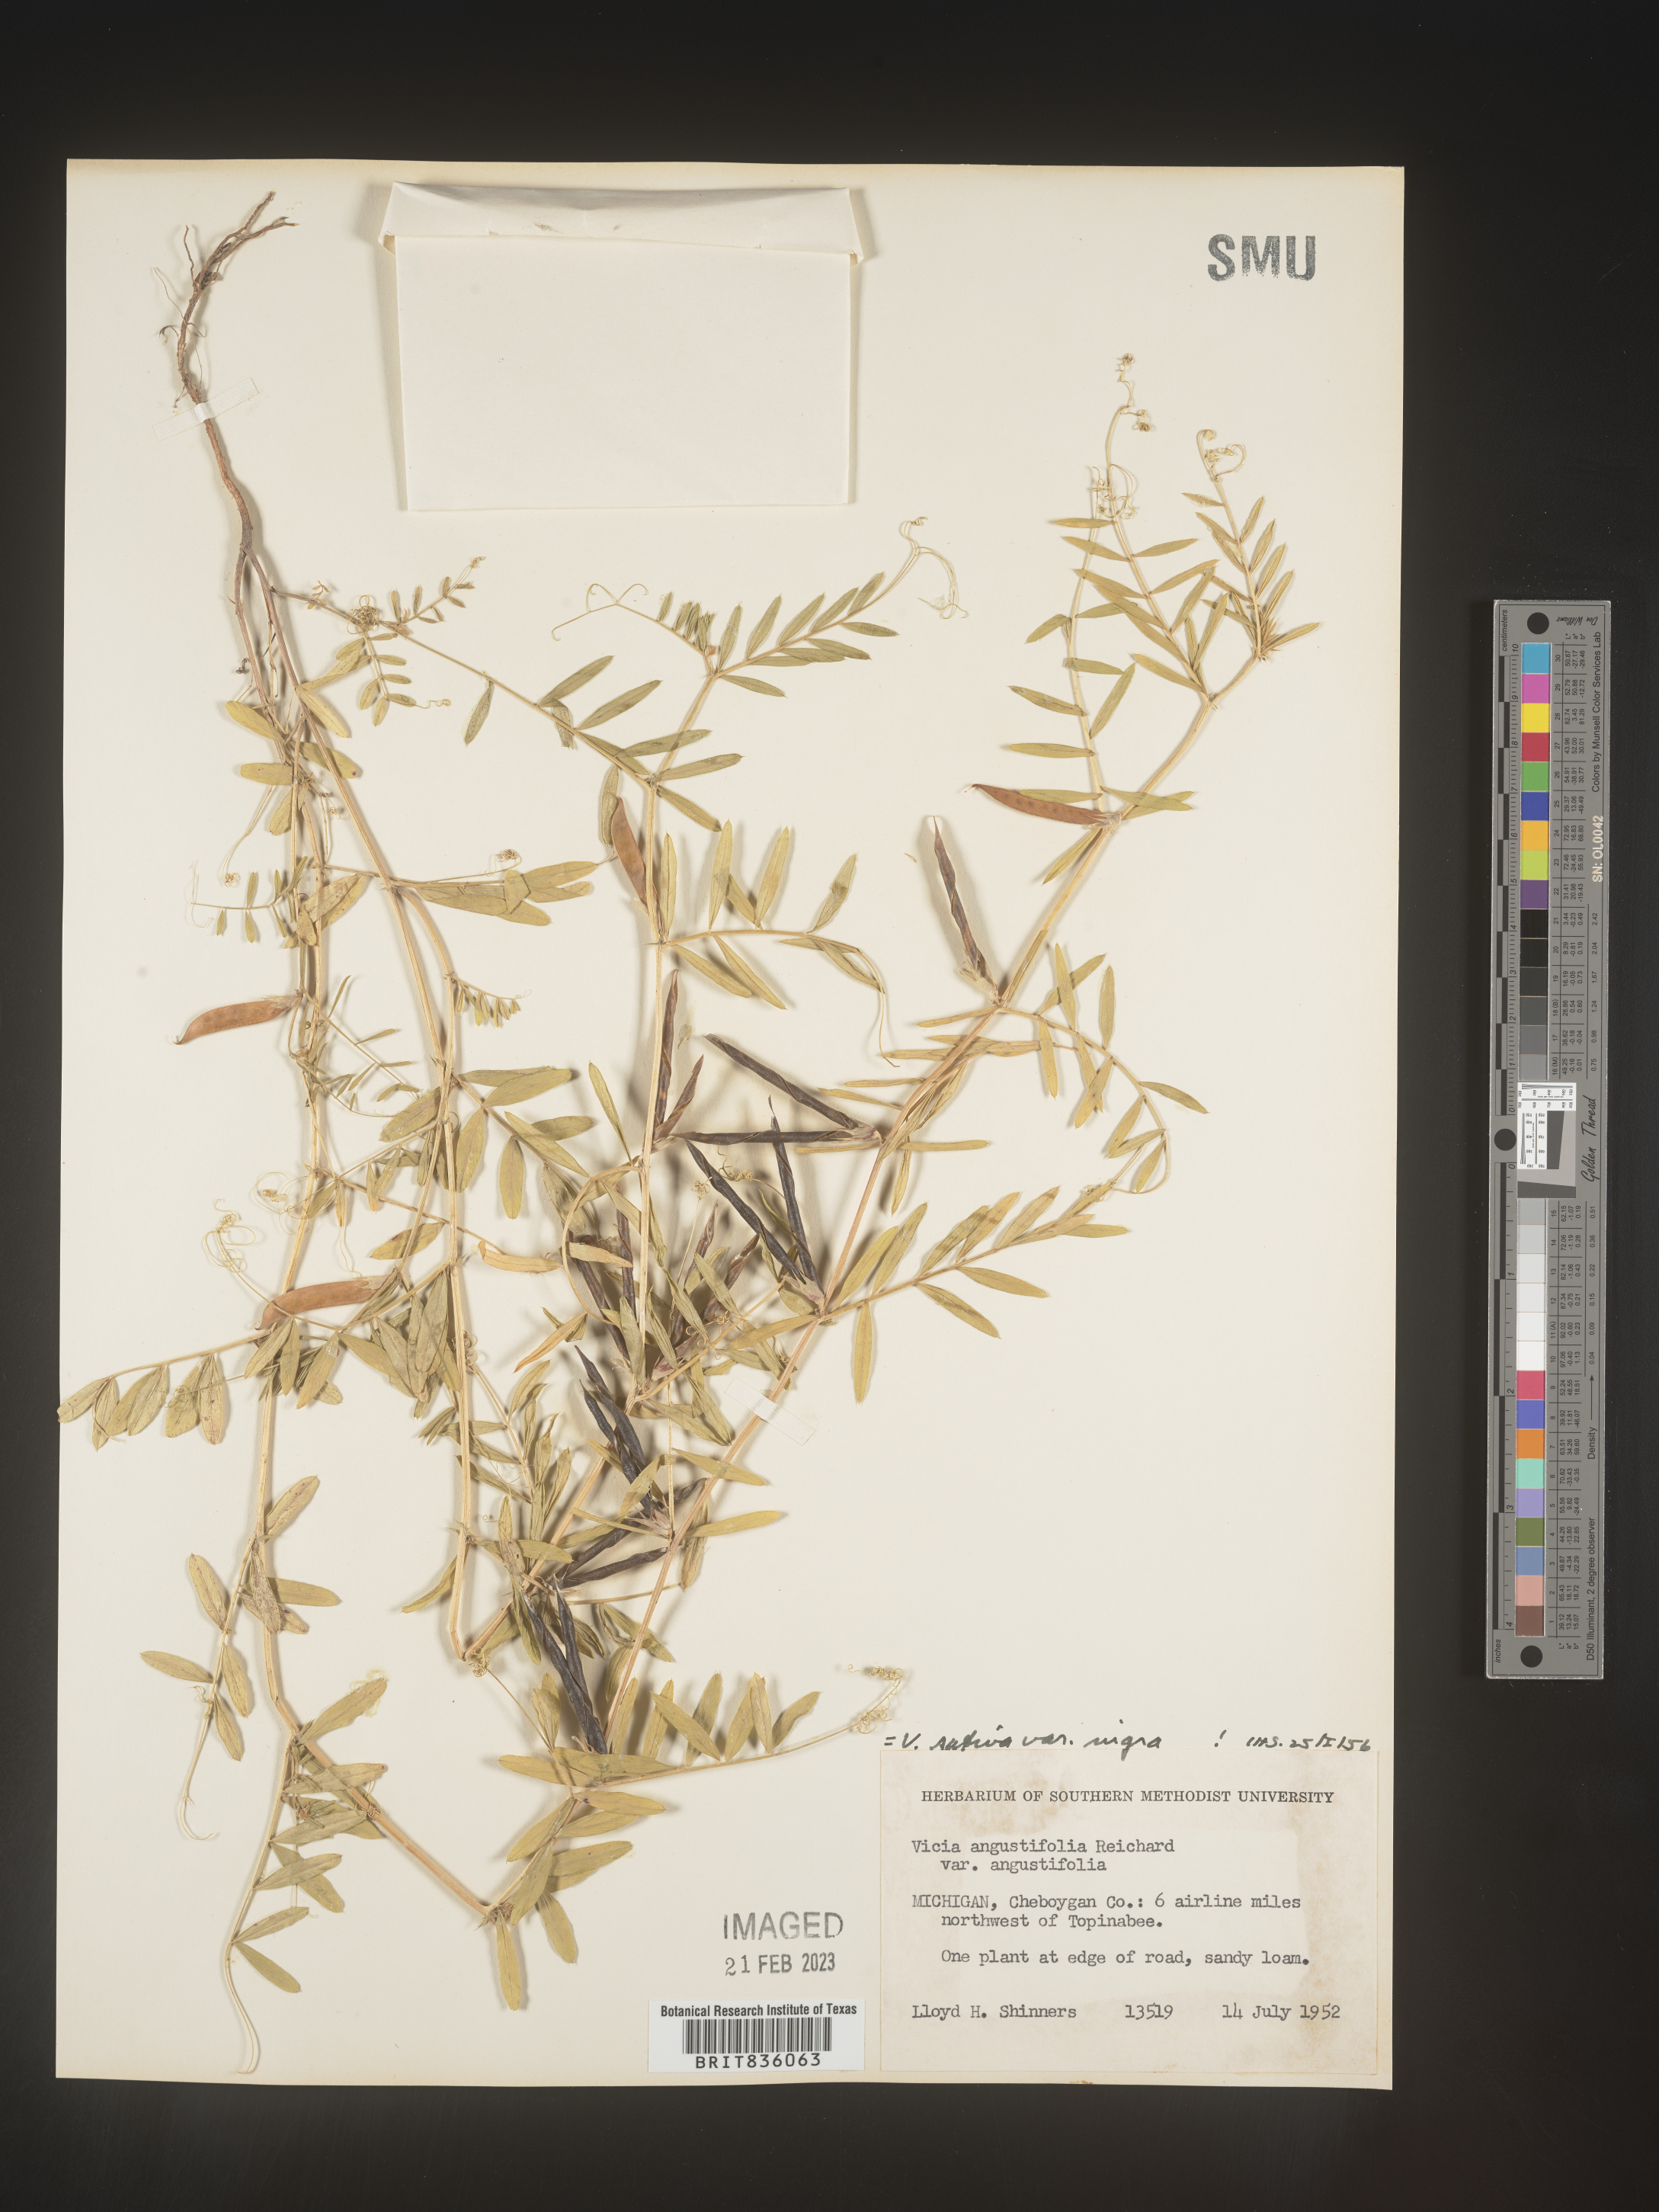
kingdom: Plantae
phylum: Tracheophyta
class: Magnoliopsida
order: Fabales
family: Fabaceae
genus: Vicia
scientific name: Vicia sativa
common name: Garden vetch
